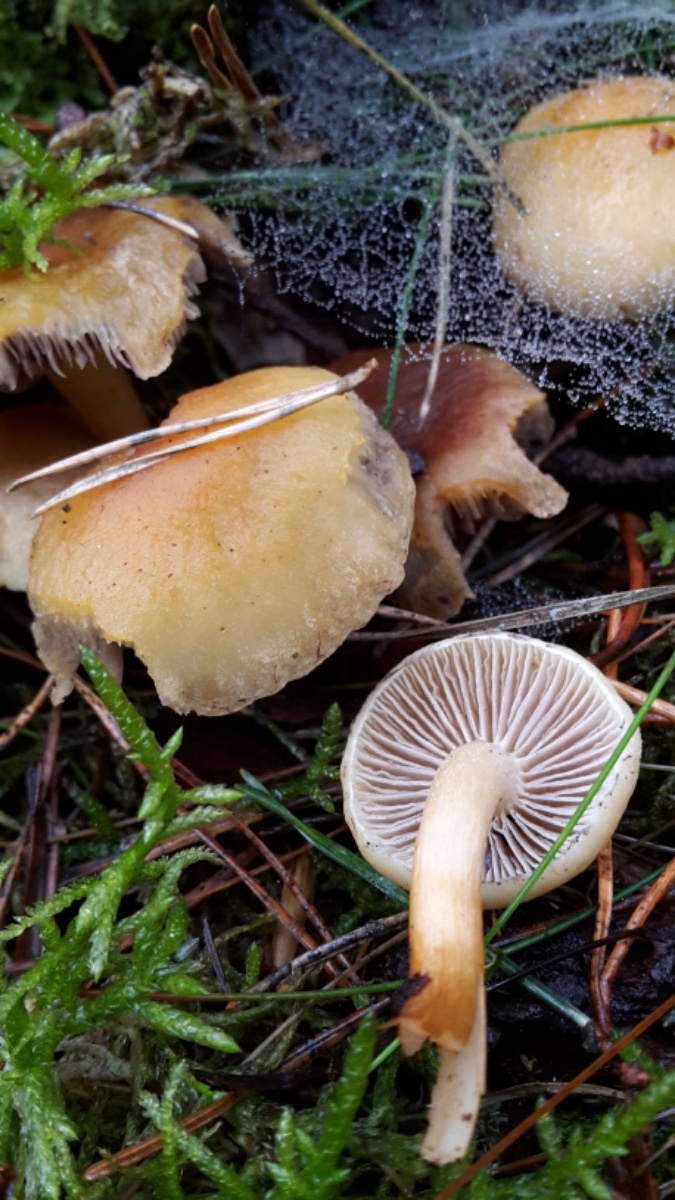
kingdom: Fungi
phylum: Basidiomycota
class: Agaricomycetes
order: Agaricales
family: Strophariaceae
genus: Hypholoma
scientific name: Hypholoma capnoides
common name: gran-svovlhat
